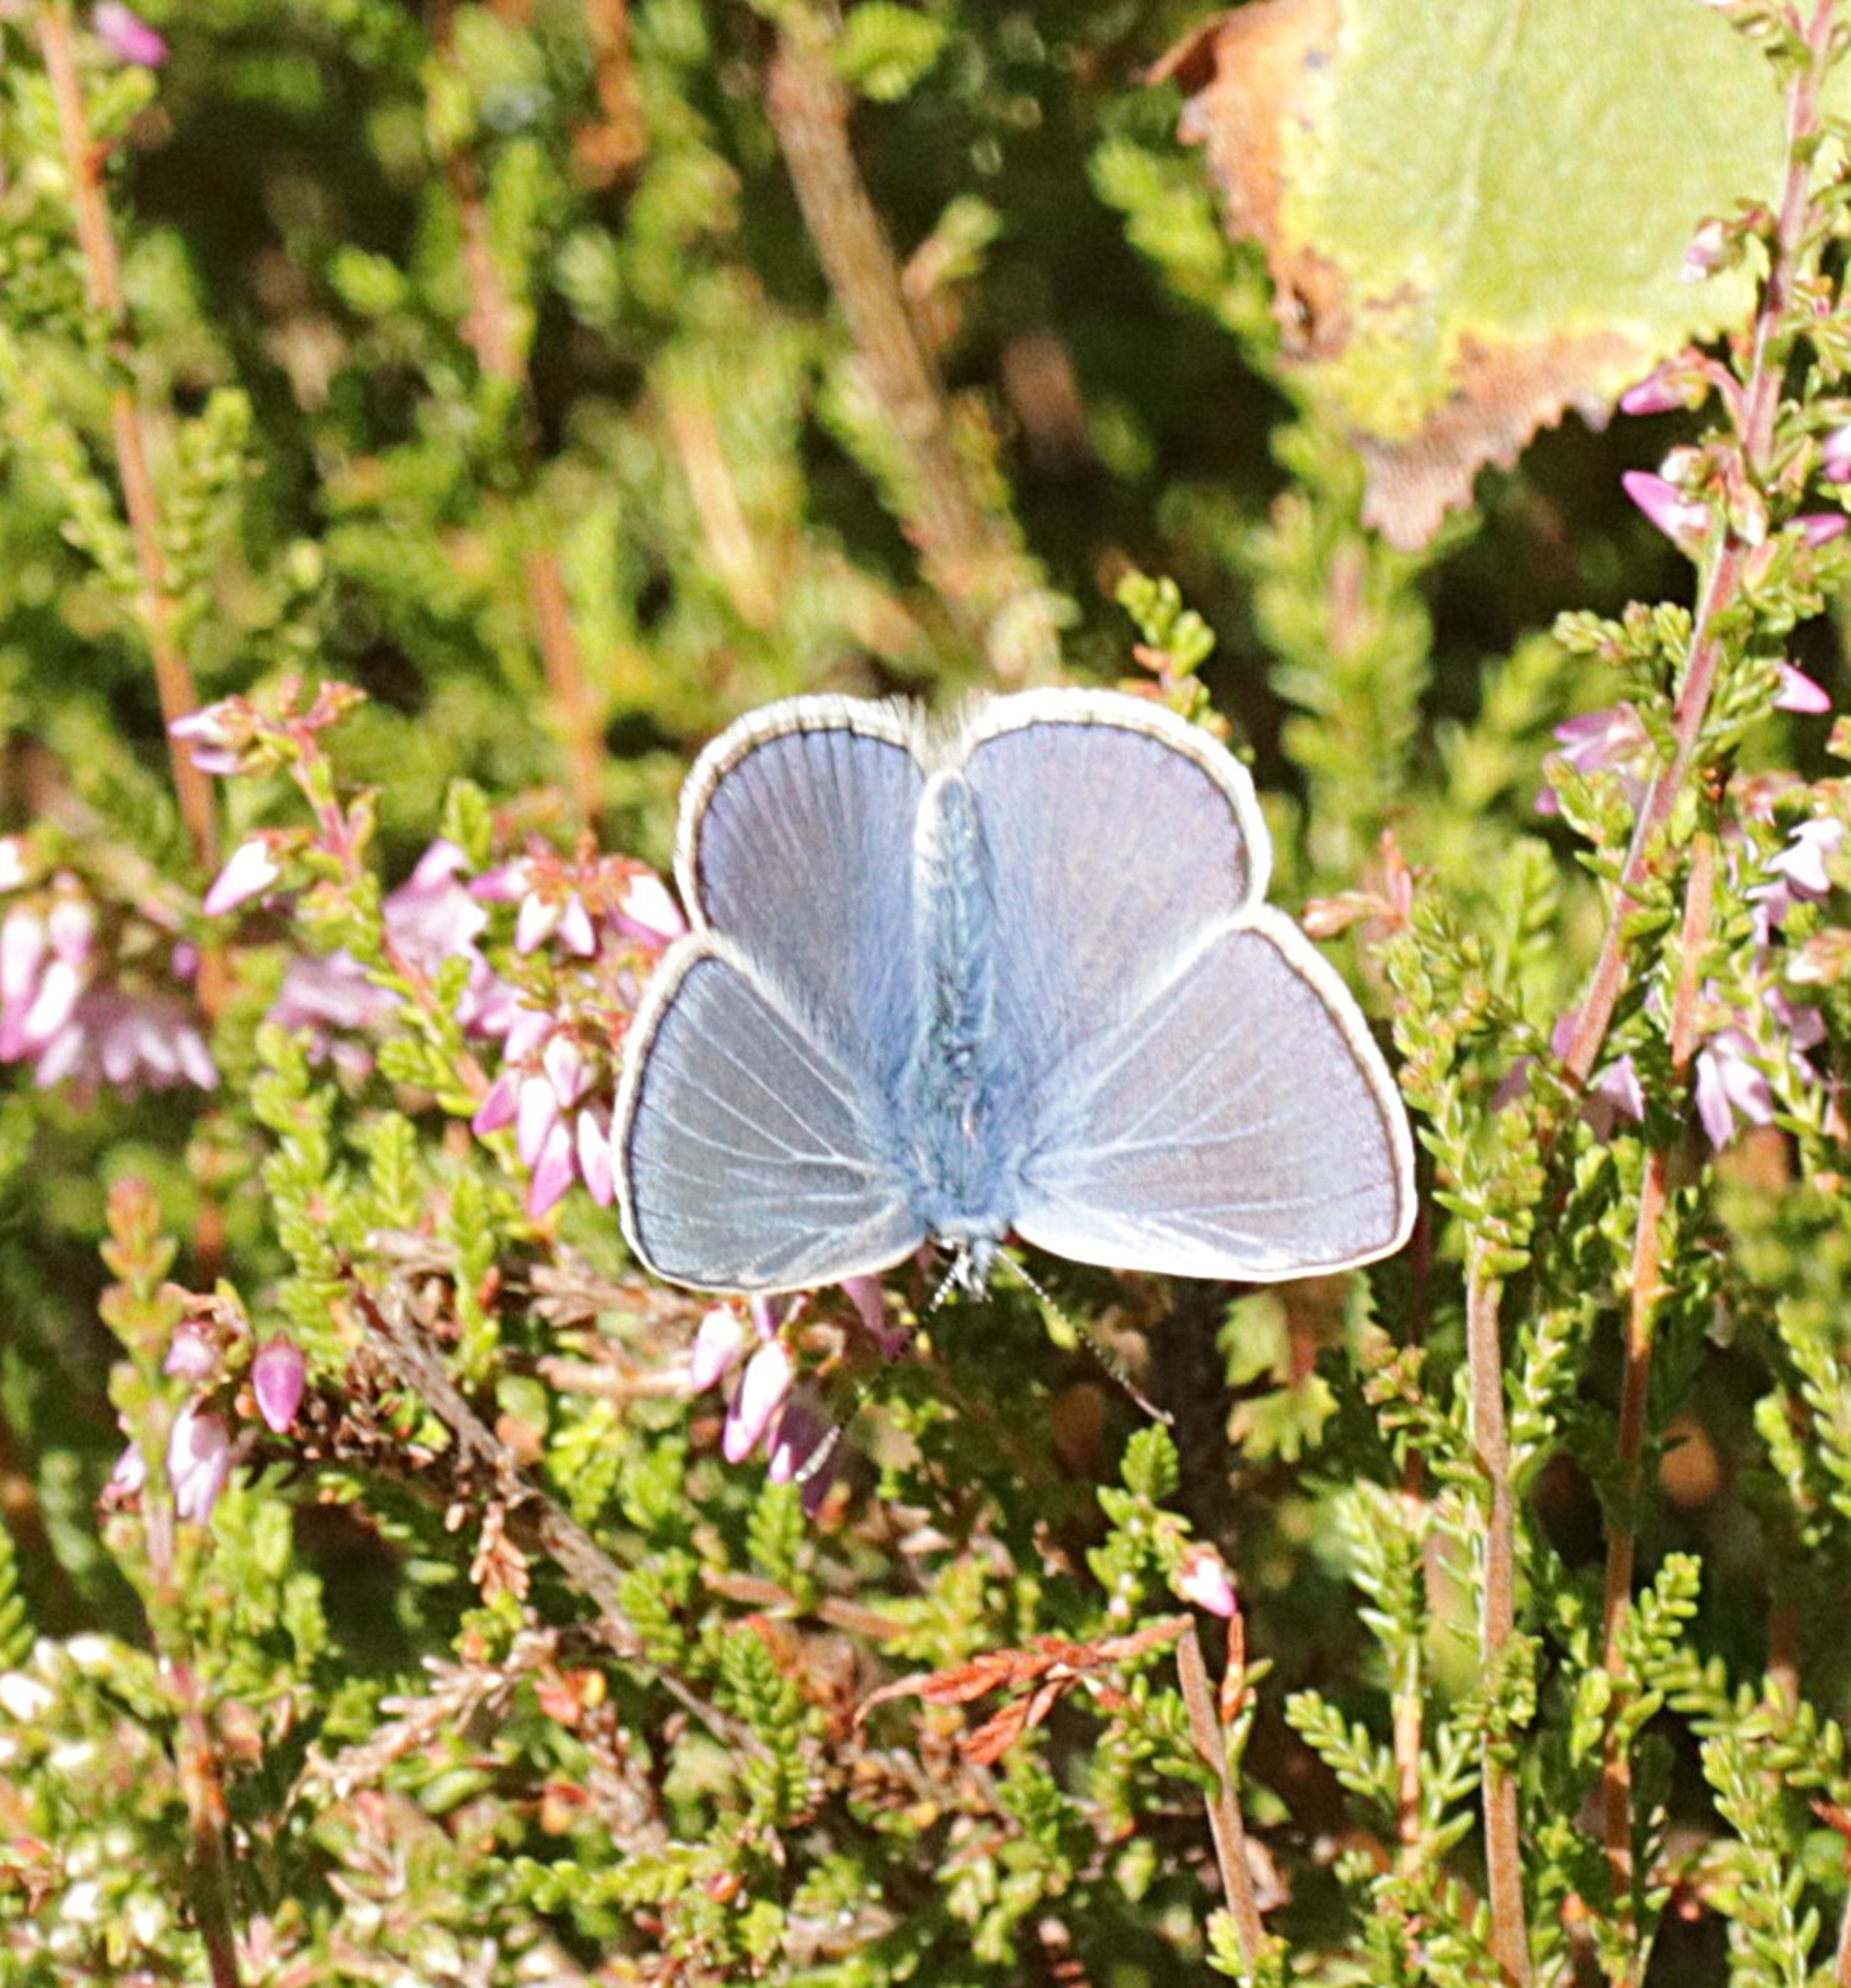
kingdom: Animalia
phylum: Arthropoda
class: Insecta
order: Lepidoptera
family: Lycaenidae
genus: Polyommatus
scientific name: Polyommatus icarus
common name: Almindelig blåfugl
